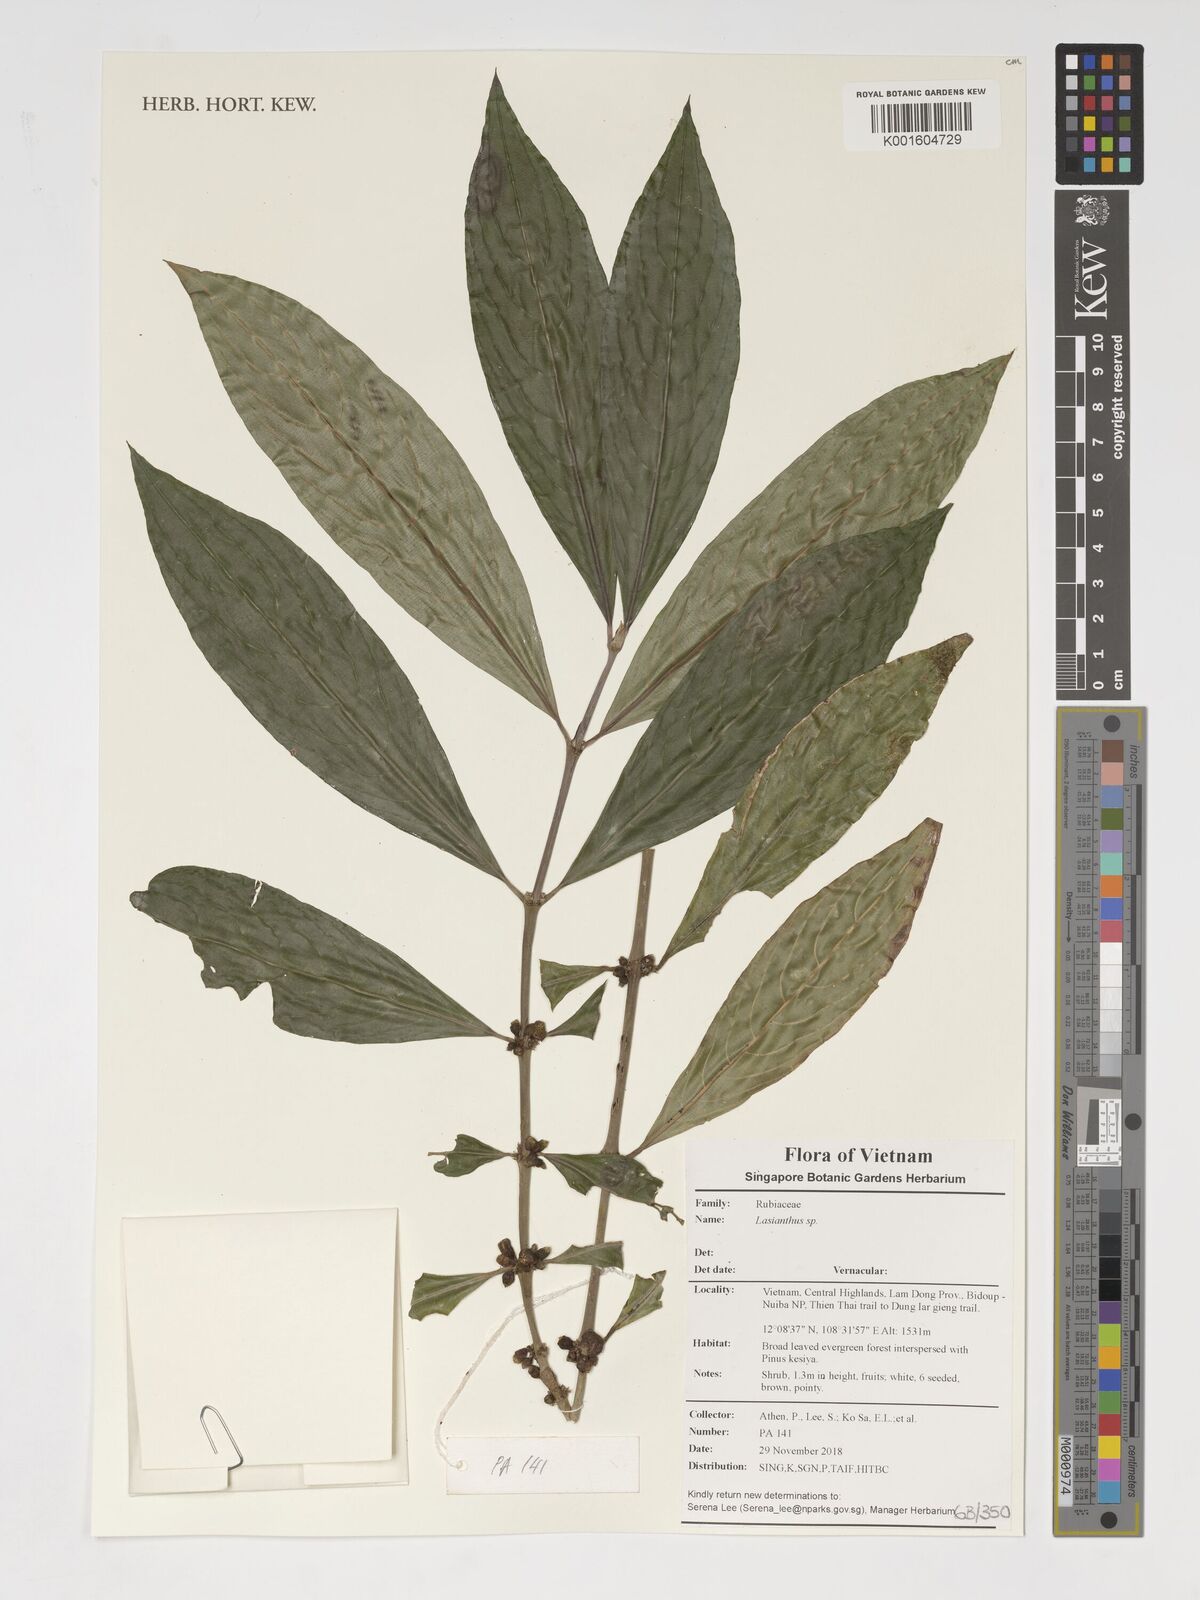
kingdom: Plantae
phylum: Tracheophyta
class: Magnoliopsida
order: Gentianales
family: Rubiaceae
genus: Lasianthus
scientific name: Lasianthus
